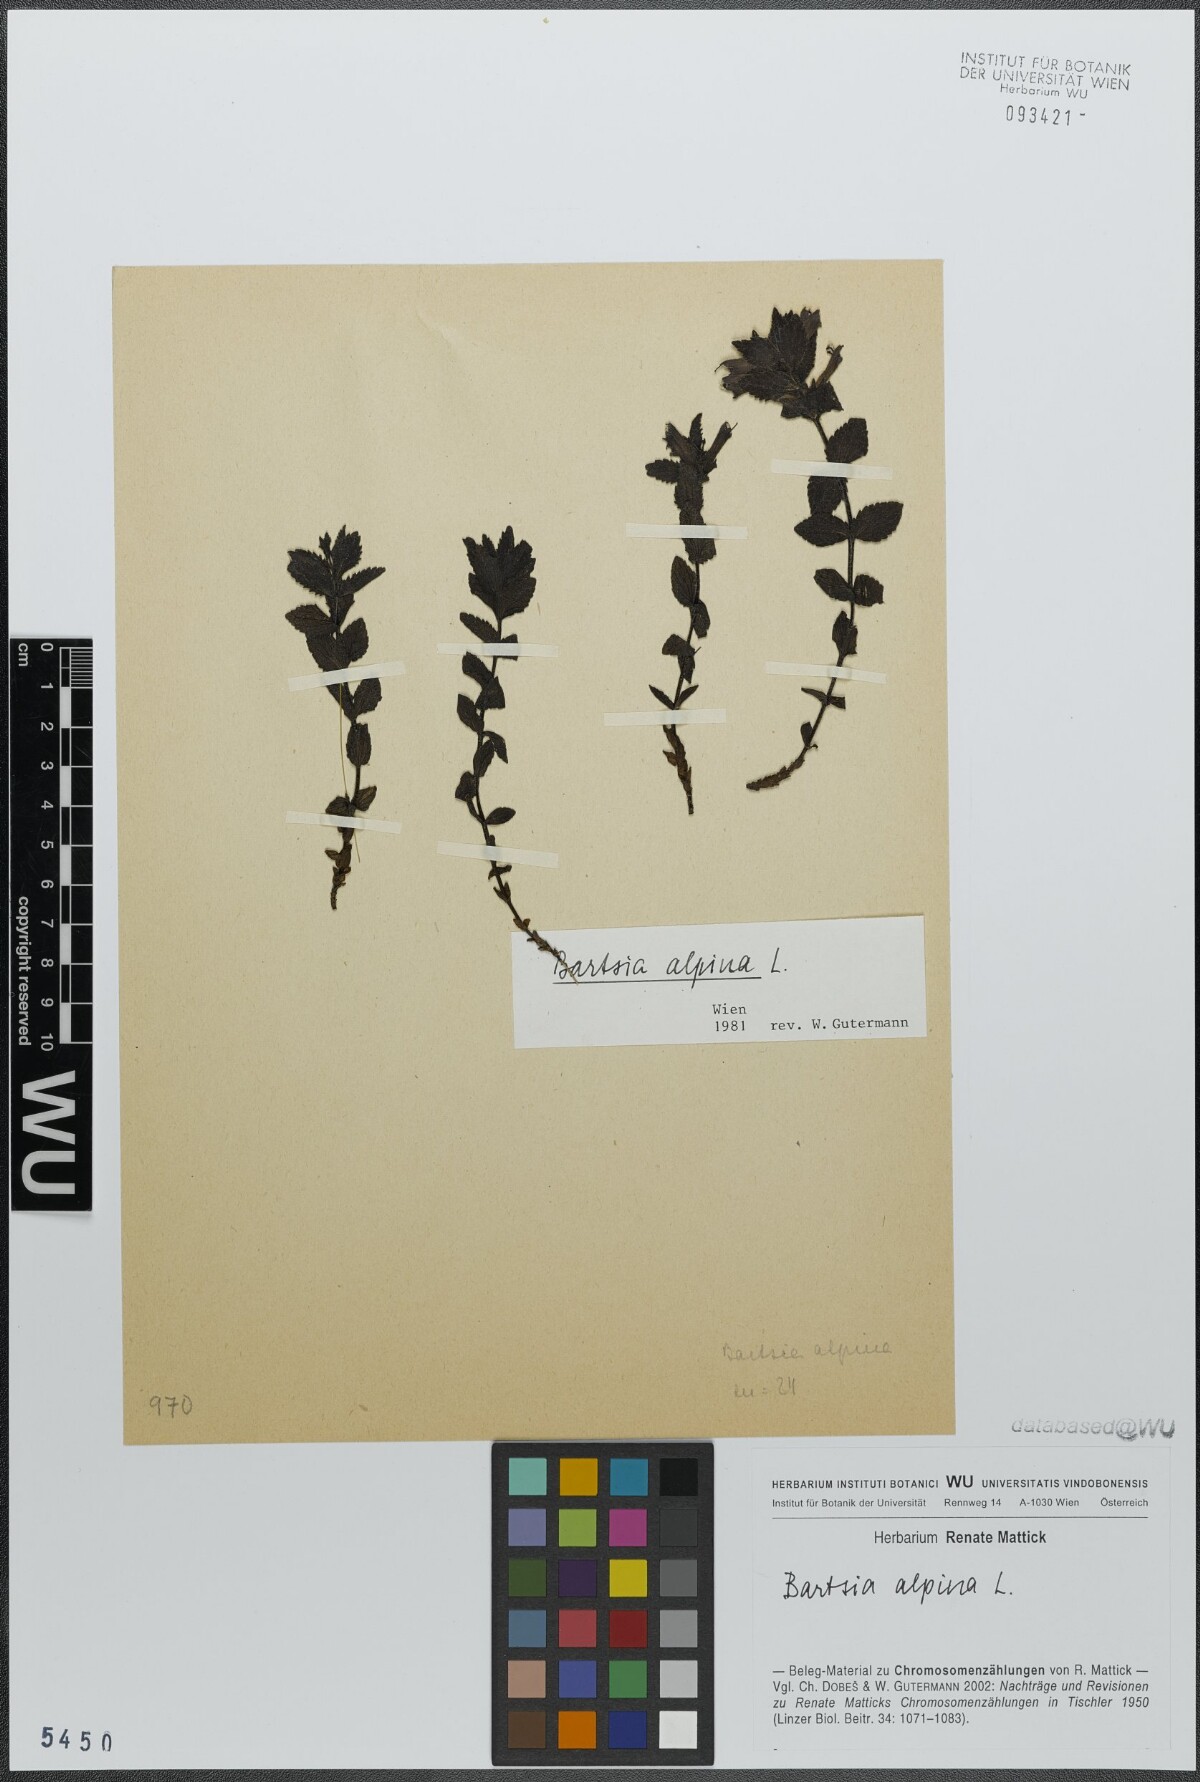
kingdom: Plantae
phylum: Tracheophyta
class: Magnoliopsida
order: Lamiales
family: Orobanchaceae
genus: Bartsia
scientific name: Bartsia alpina
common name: Alpine bartsia
